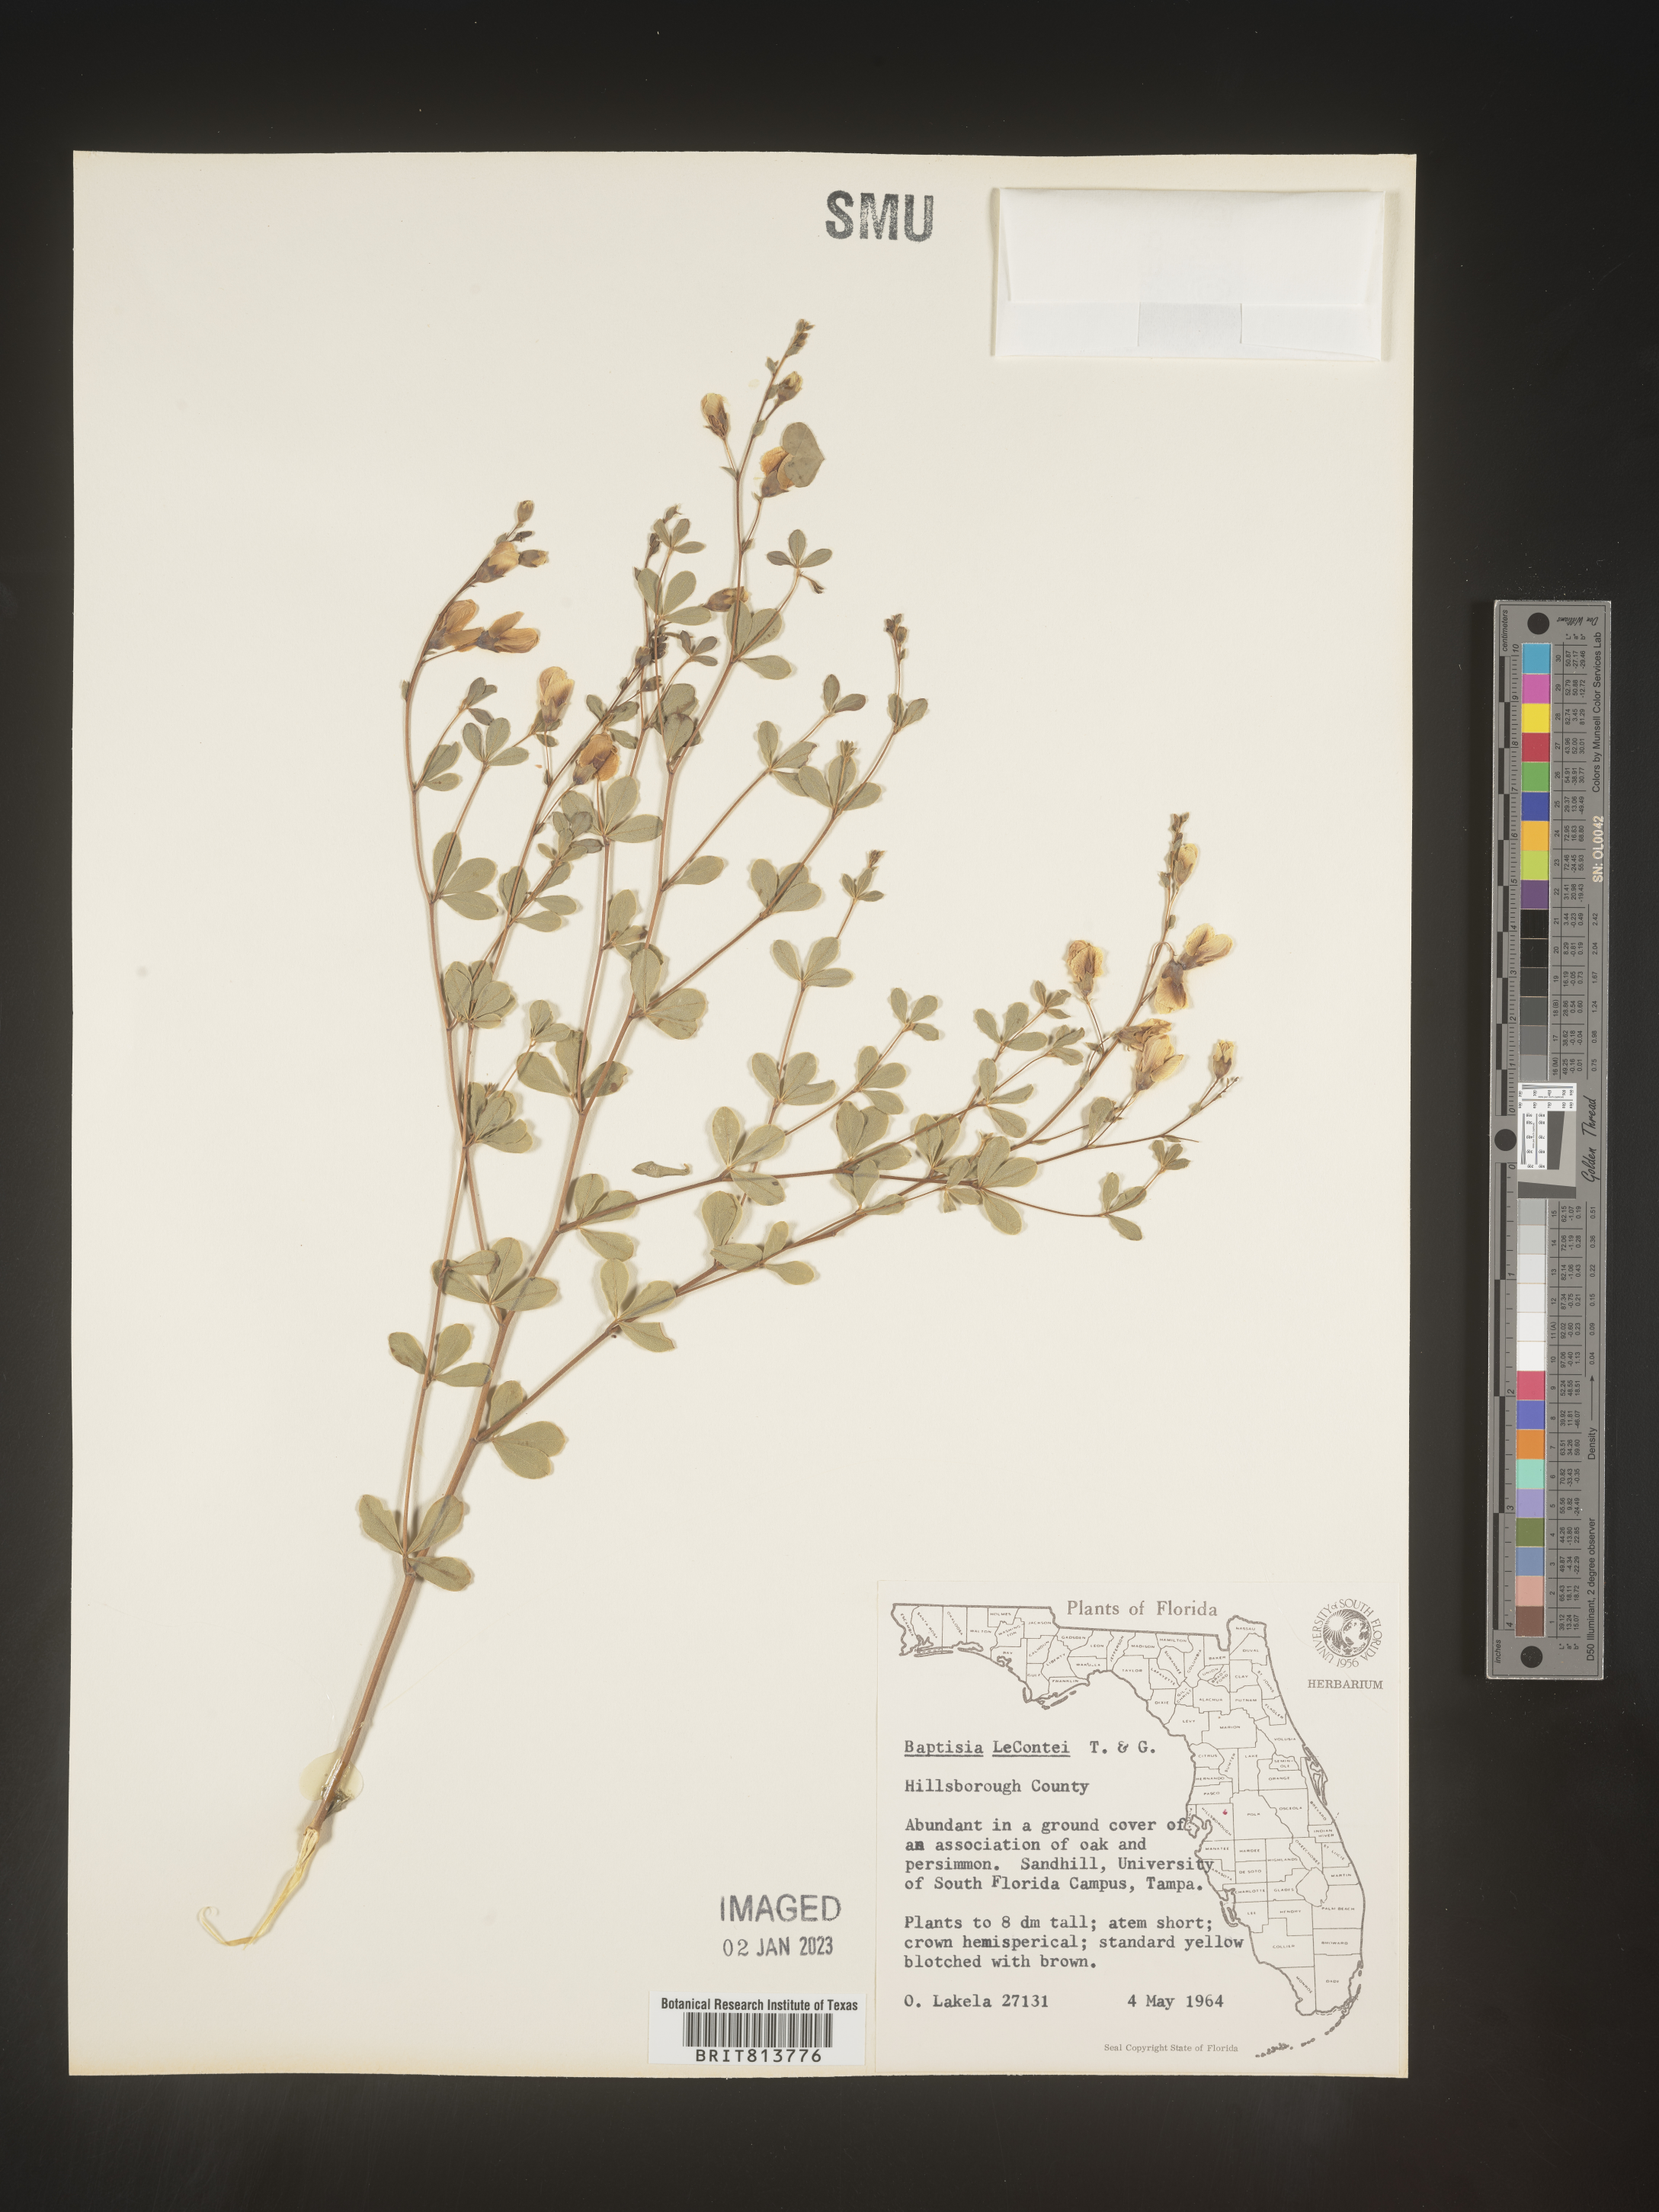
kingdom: Plantae
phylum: Tracheophyta
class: Magnoliopsida
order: Fabales
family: Fabaceae
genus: Baptisia
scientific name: Baptisia lecontei
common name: Pineland wild indigo
